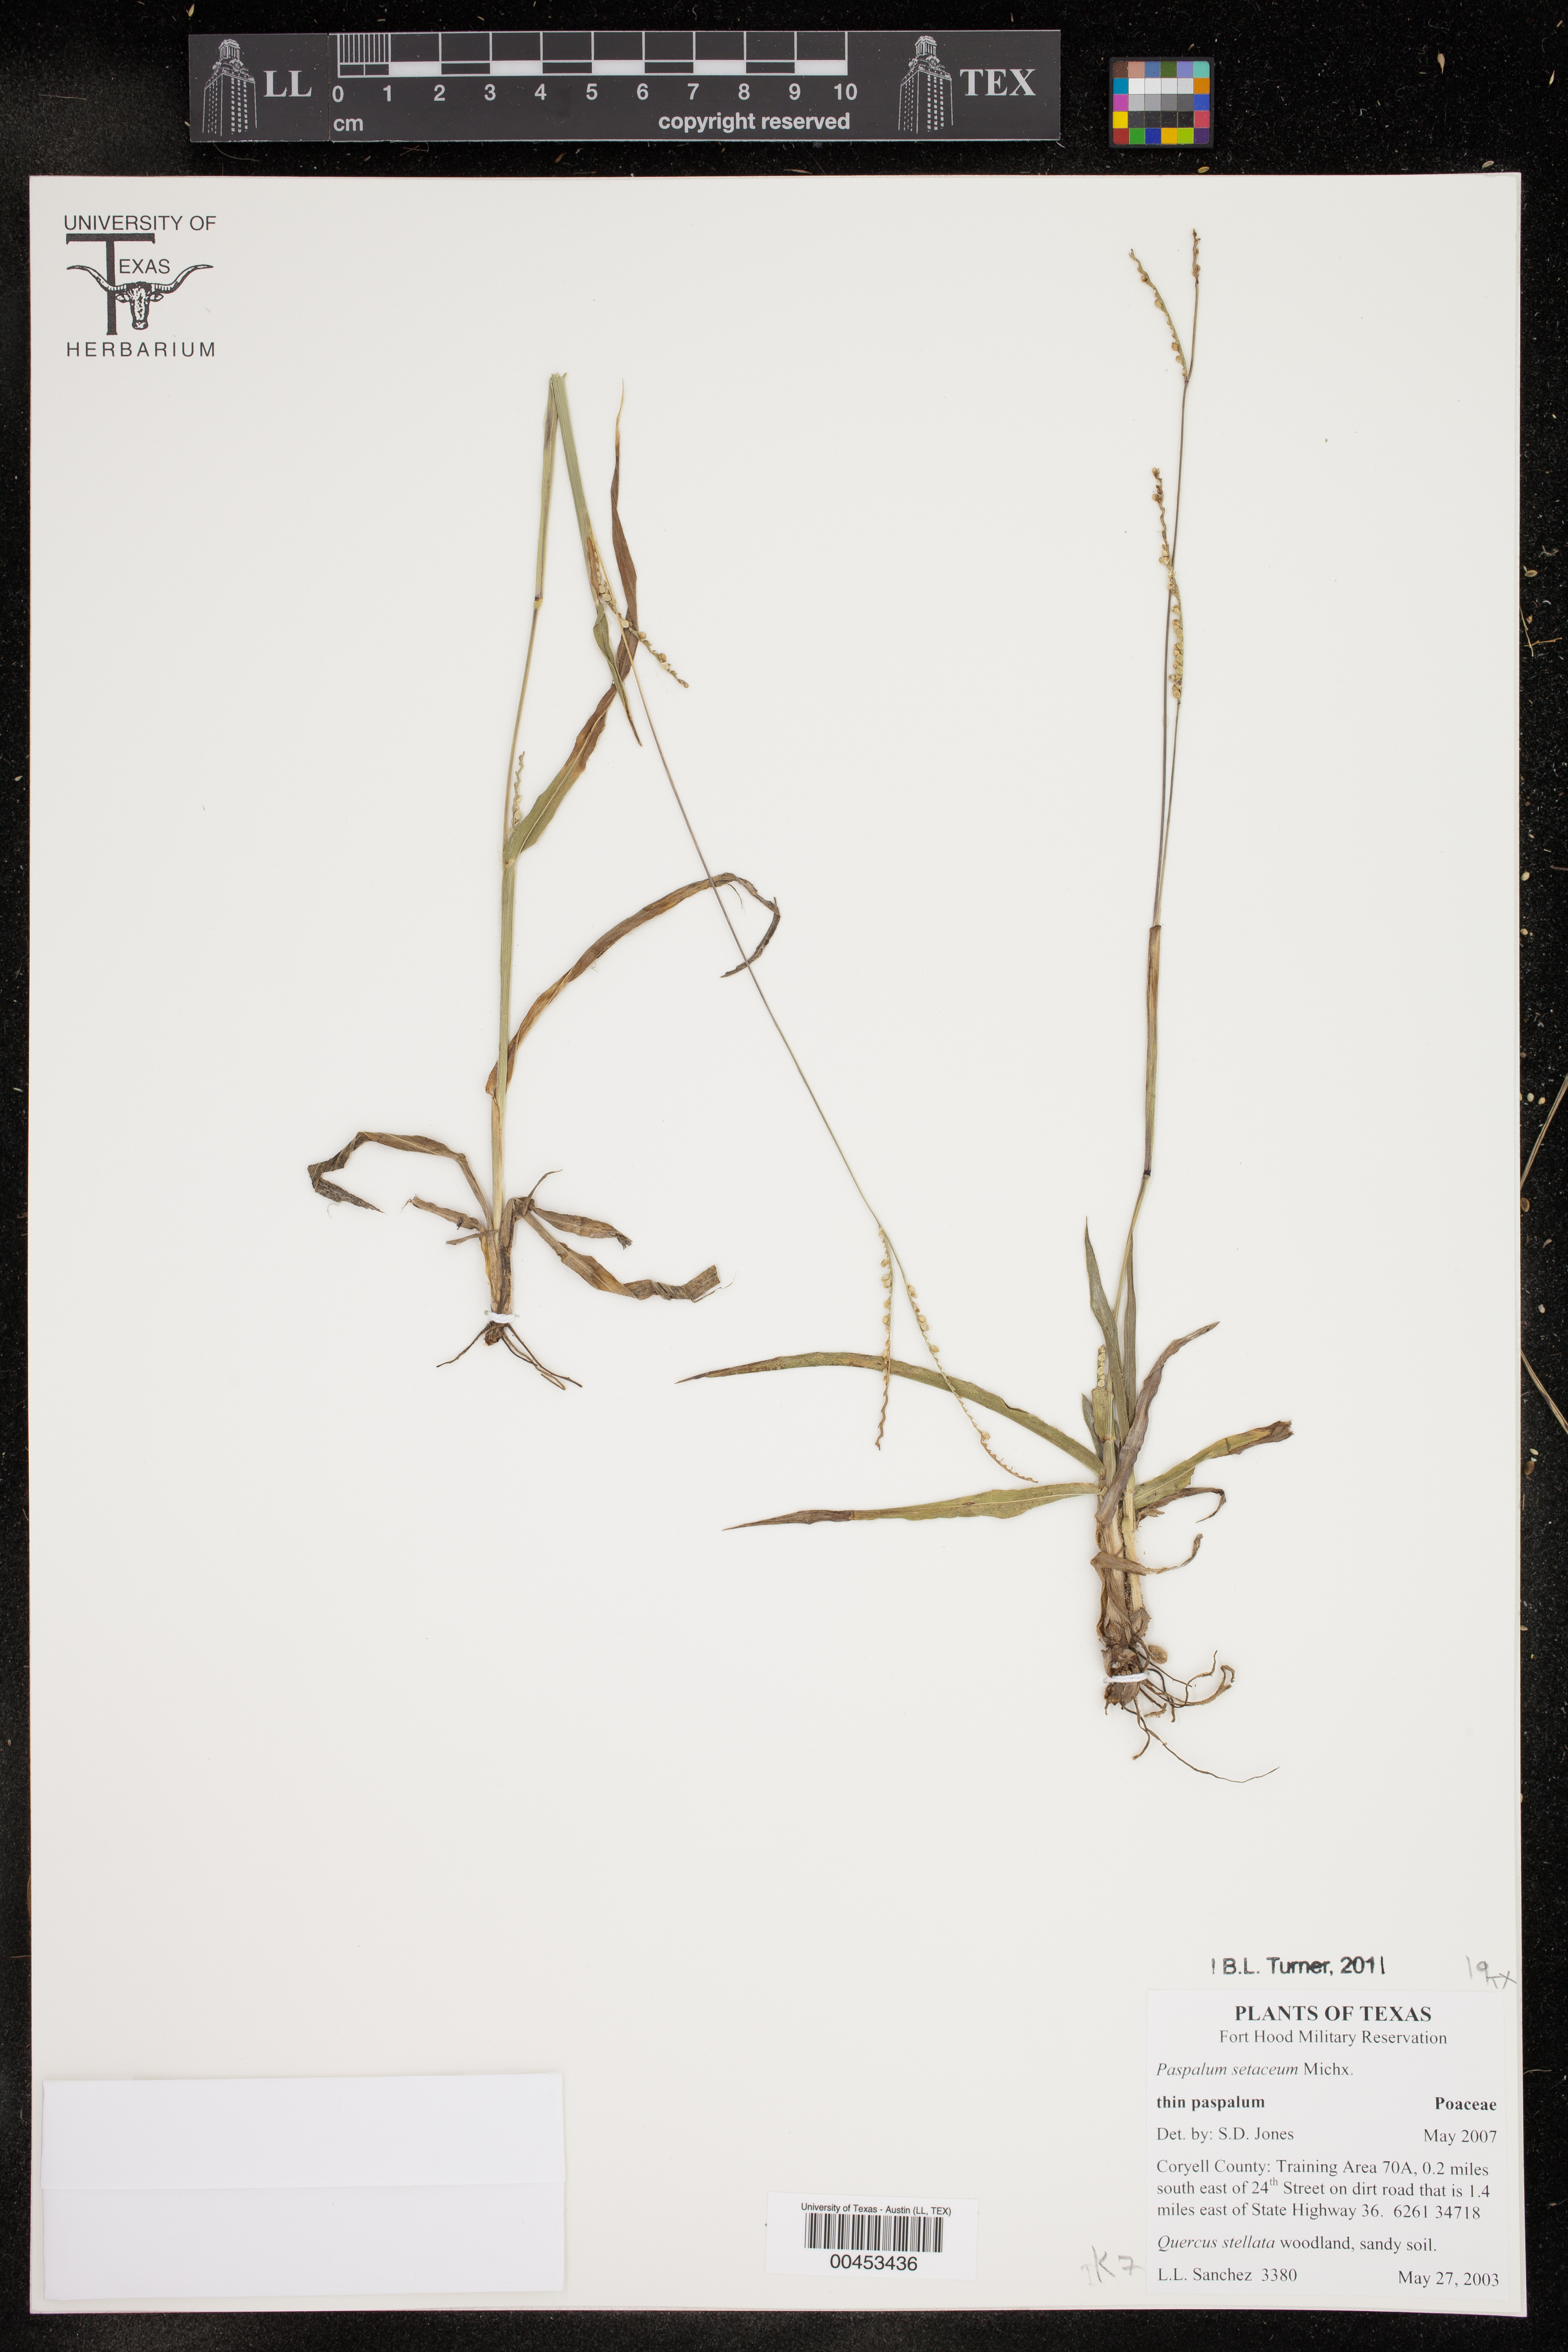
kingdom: Plantae
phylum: Tracheophyta
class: Liliopsida
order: Poales
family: Poaceae
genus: Paspalum
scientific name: Paspalum setaceum
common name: Slender paspalum
